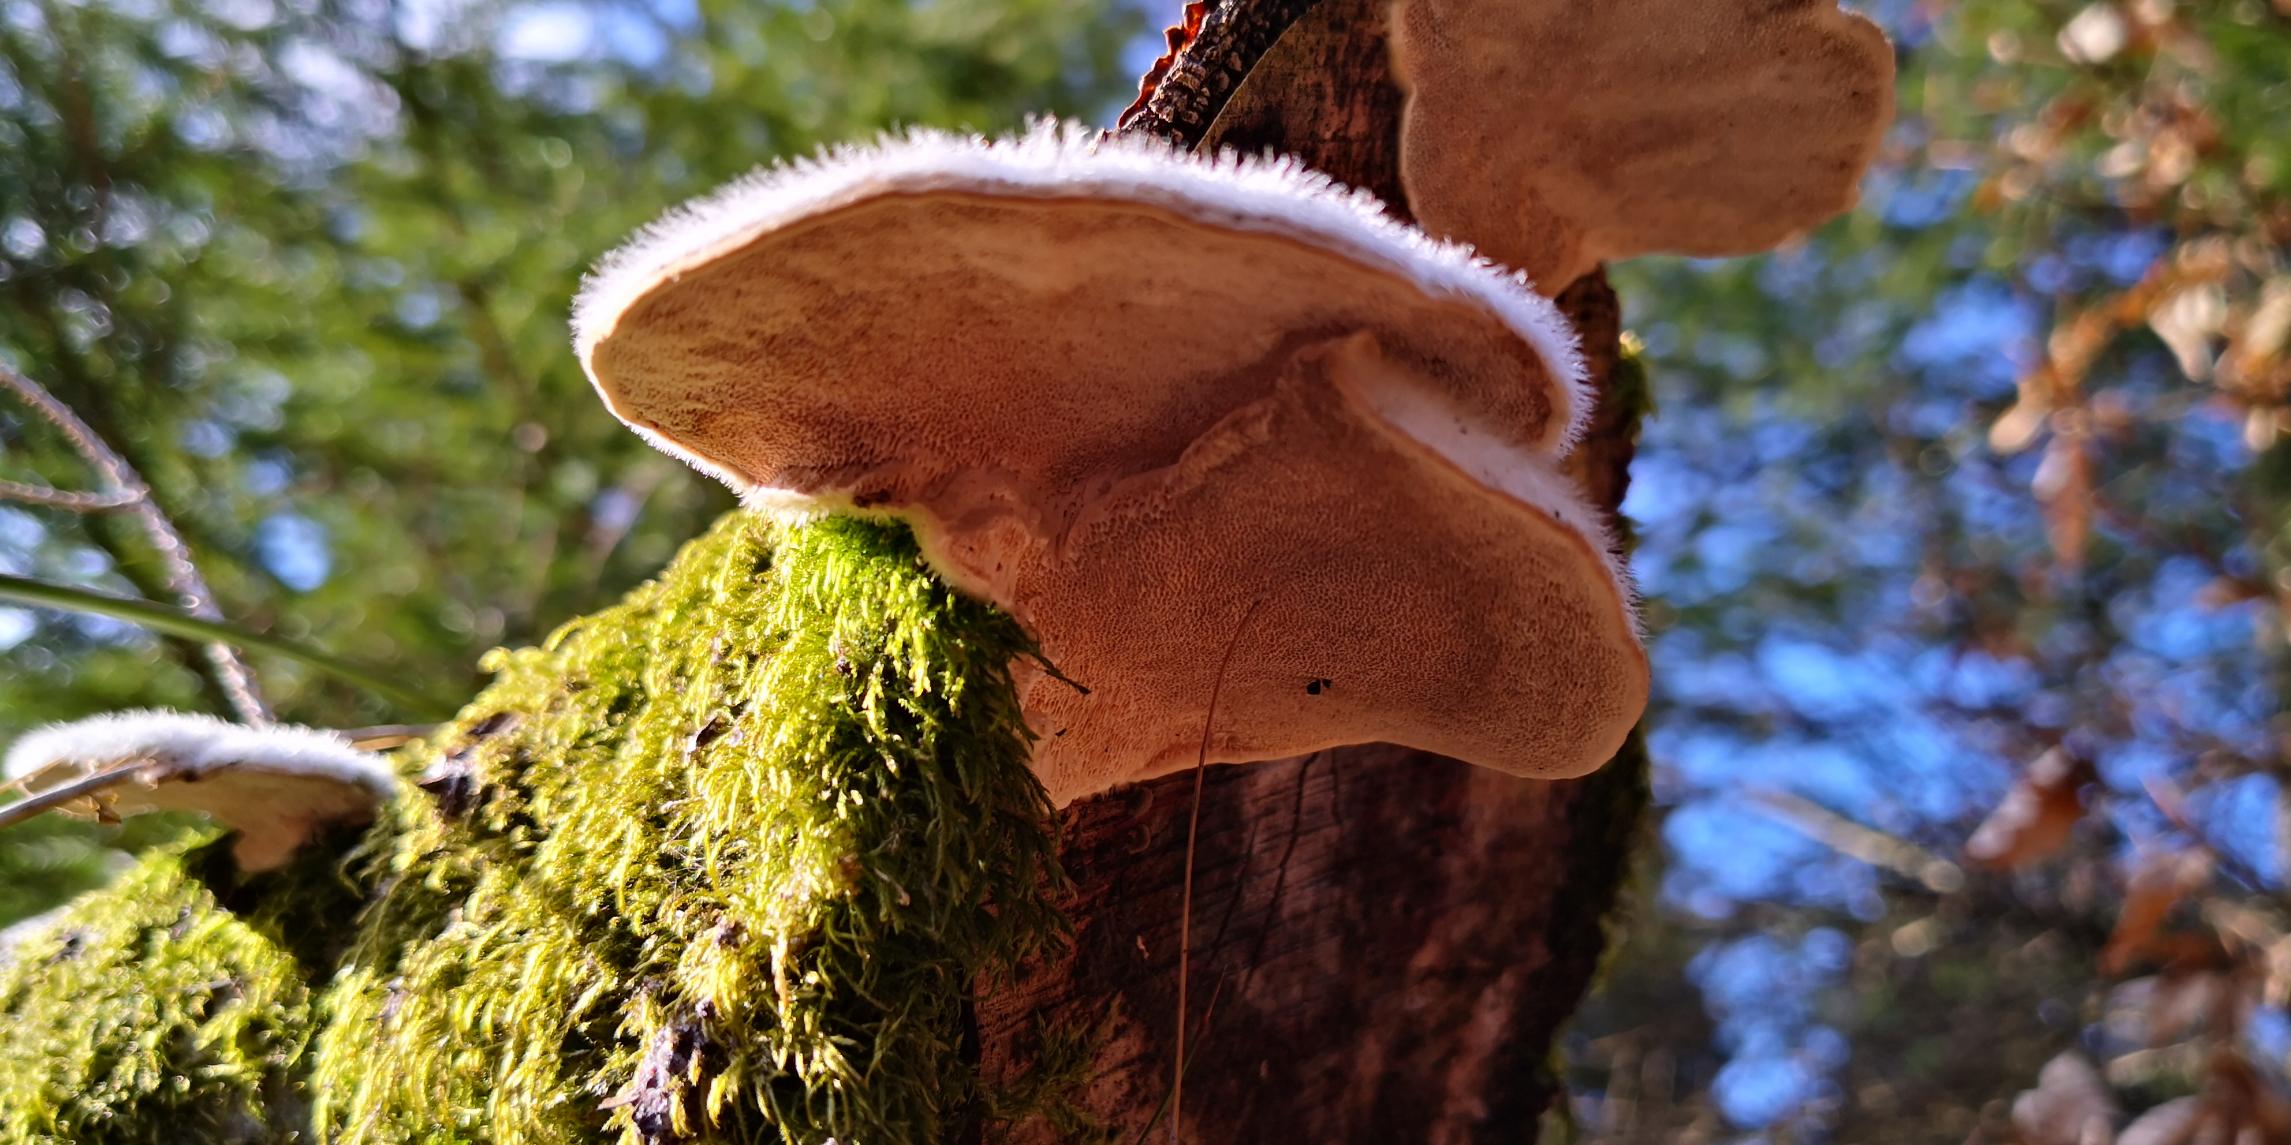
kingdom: Fungi
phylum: Basidiomycota
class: Agaricomycetes
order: Polyporales
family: Polyporaceae
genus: Trametes
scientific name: Trametes hirsuta
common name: Håret læderporesvamp
